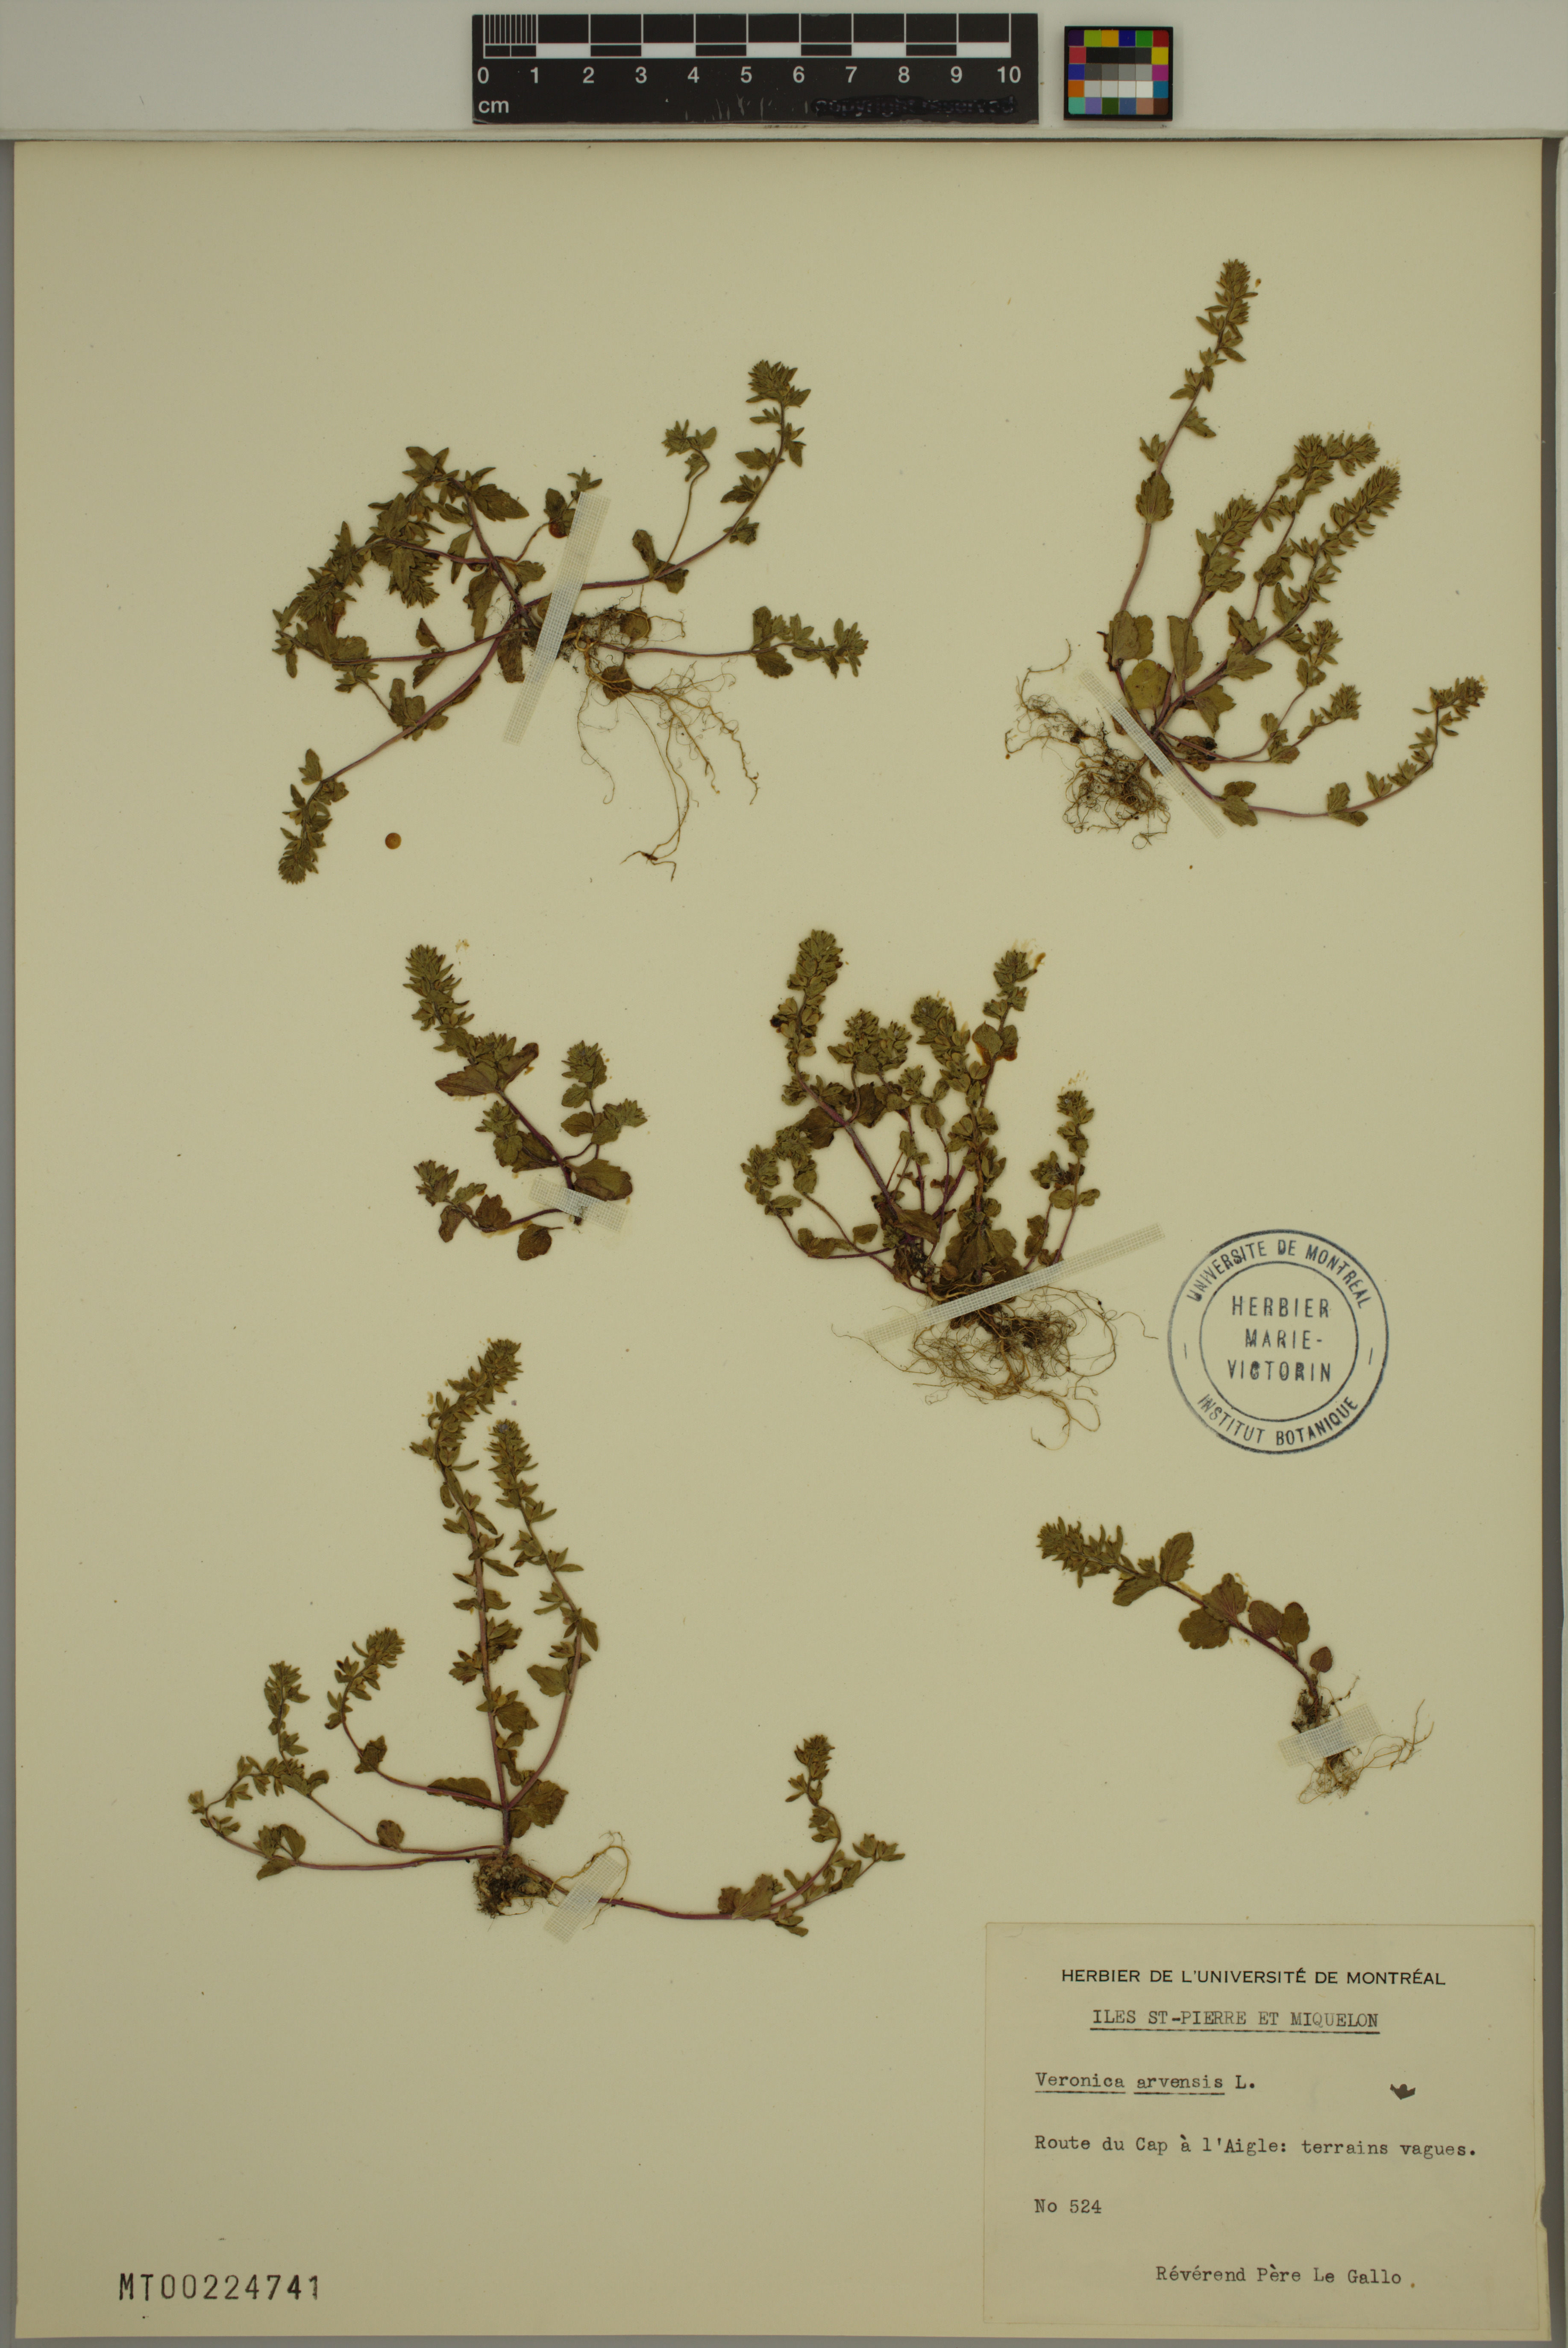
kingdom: Plantae
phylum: Tracheophyta
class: Magnoliopsida
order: Lamiales
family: Plantaginaceae
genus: Veronica
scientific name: Veronica arvensis
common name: Corn speedwell
